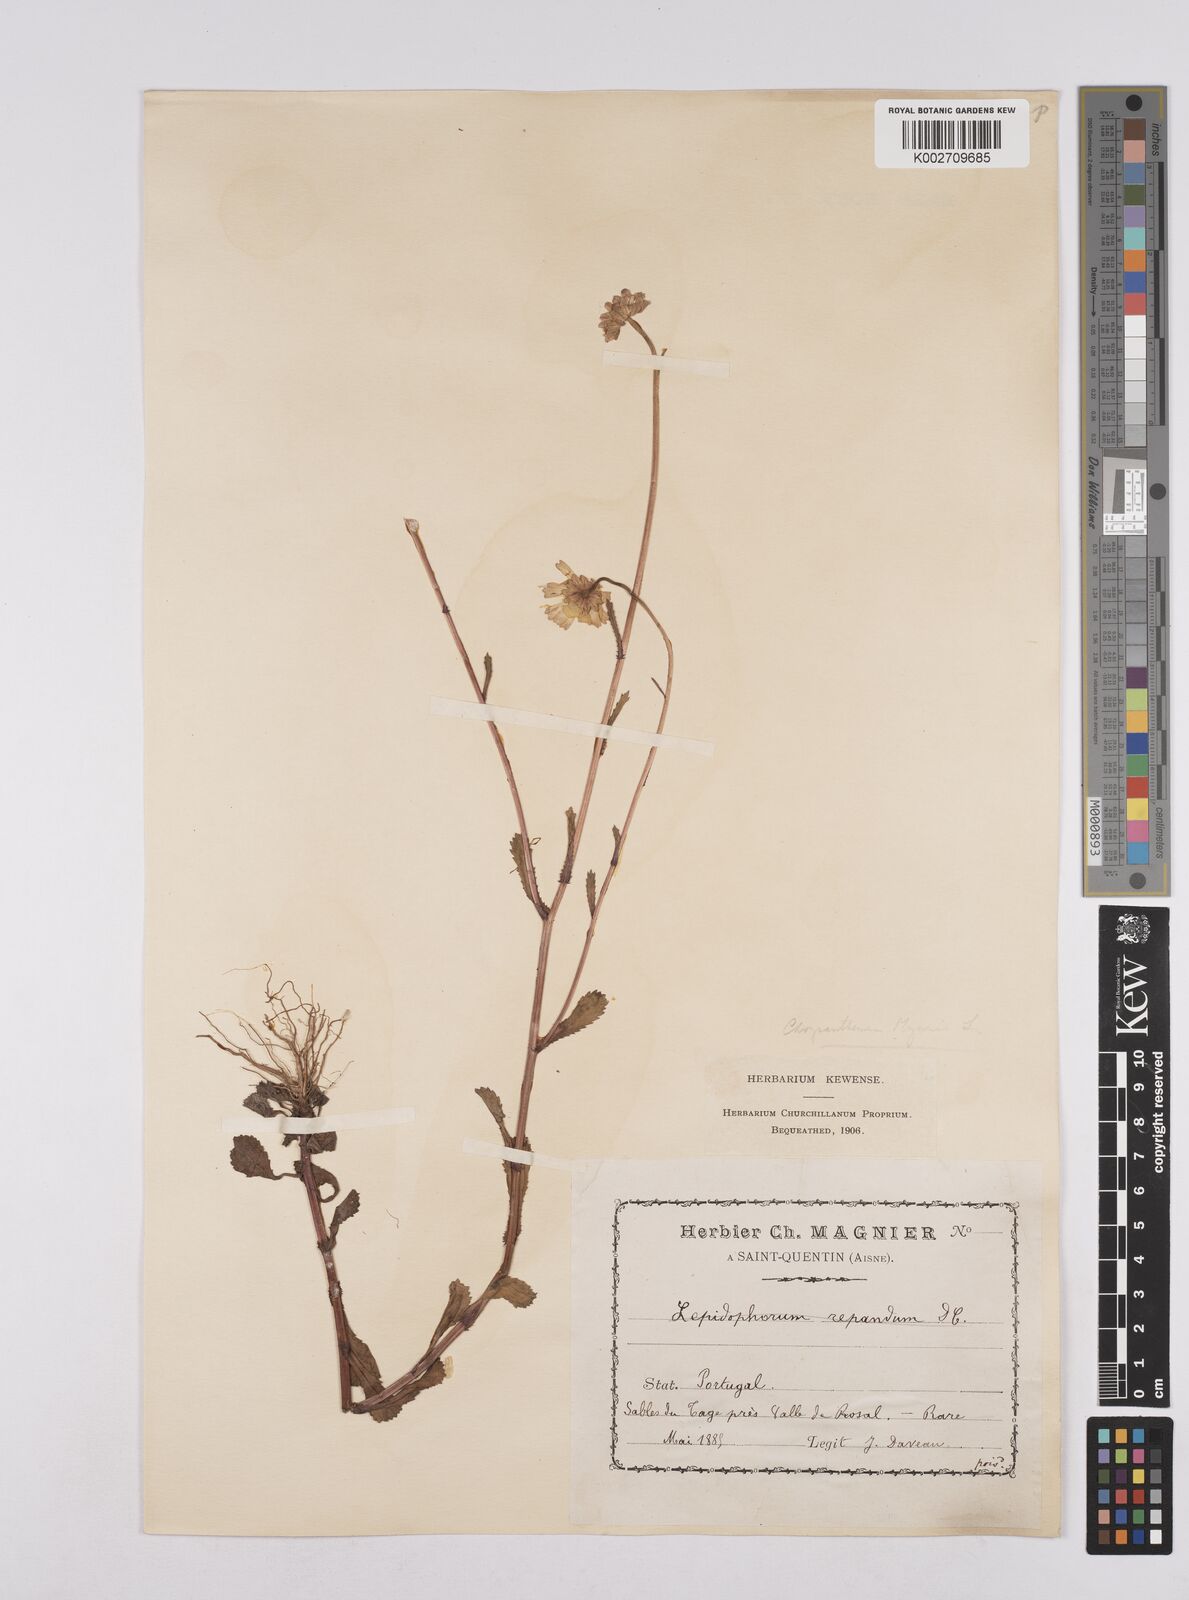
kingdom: Plantae
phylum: Tracheophyta
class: Magnoliopsida
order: Asterales
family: Asteraceae
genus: Coleostephus
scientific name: Coleostephus myconis
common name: Mediterranean marigold
